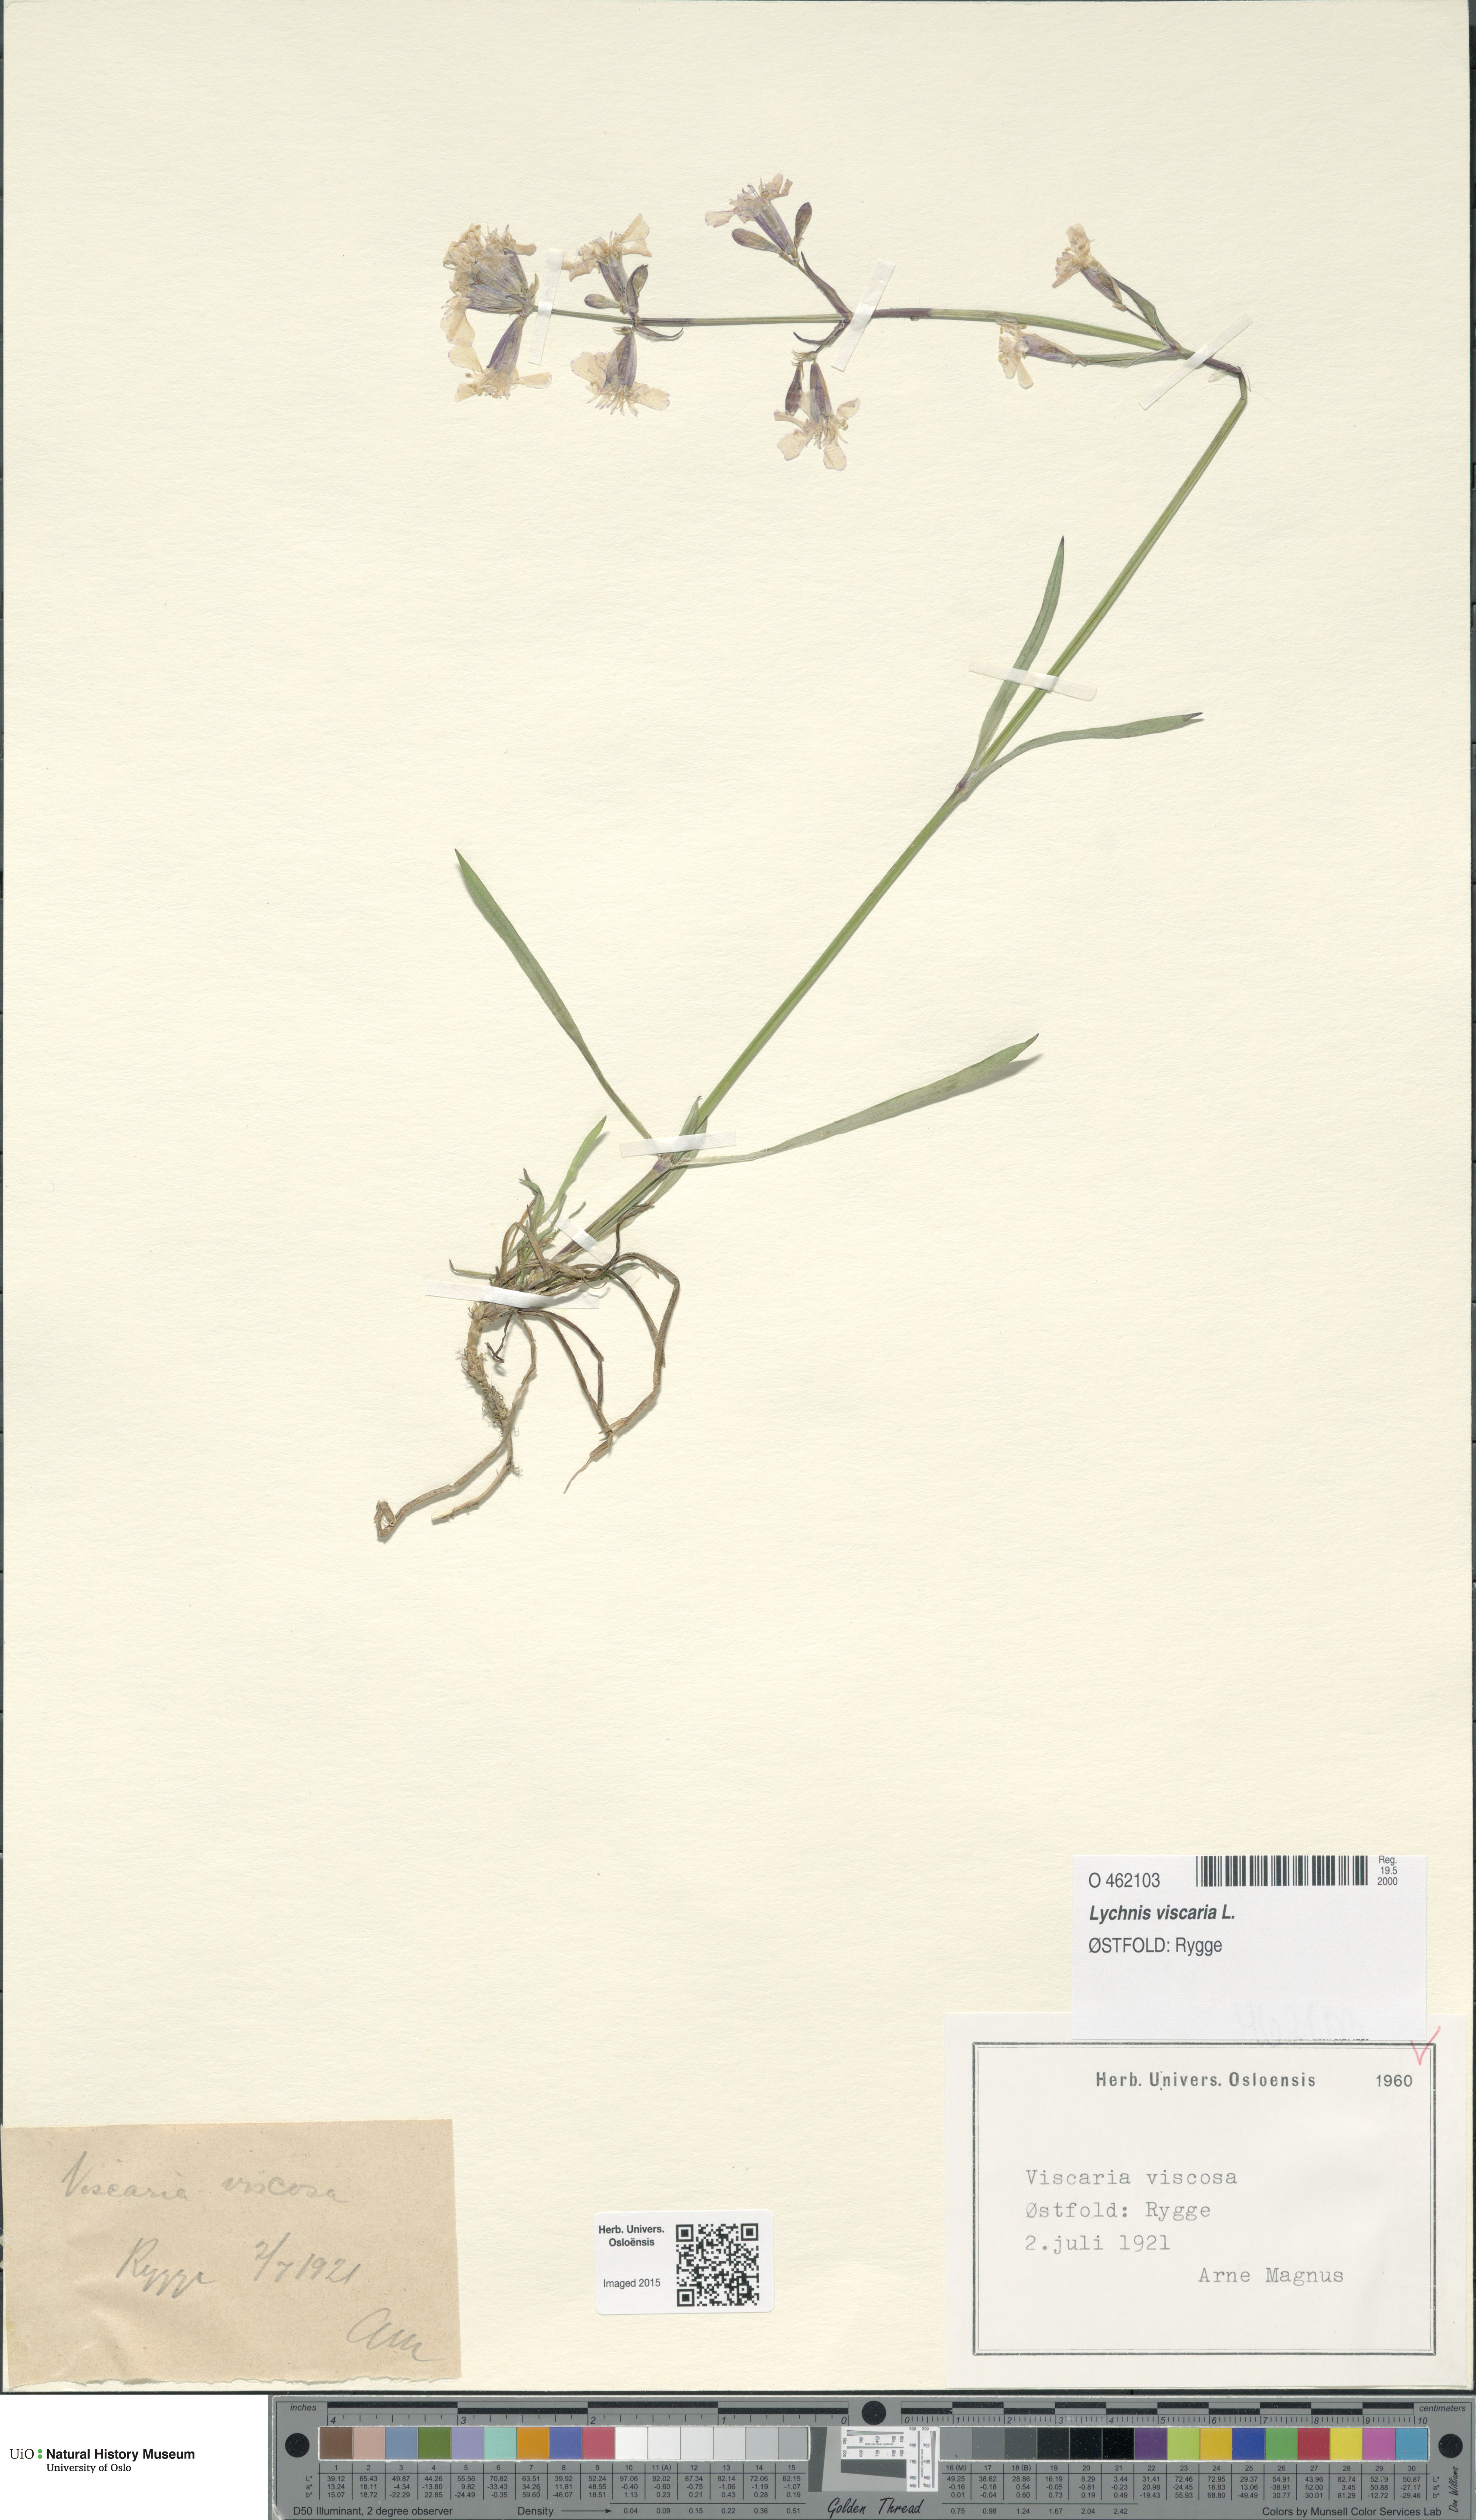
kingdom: Plantae
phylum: Tracheophyta
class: Magnoliopsida
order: Caryophyllales
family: Caryophyllaceae
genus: Viscaria
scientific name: Viscaria vulgaris
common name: Clammy campion
